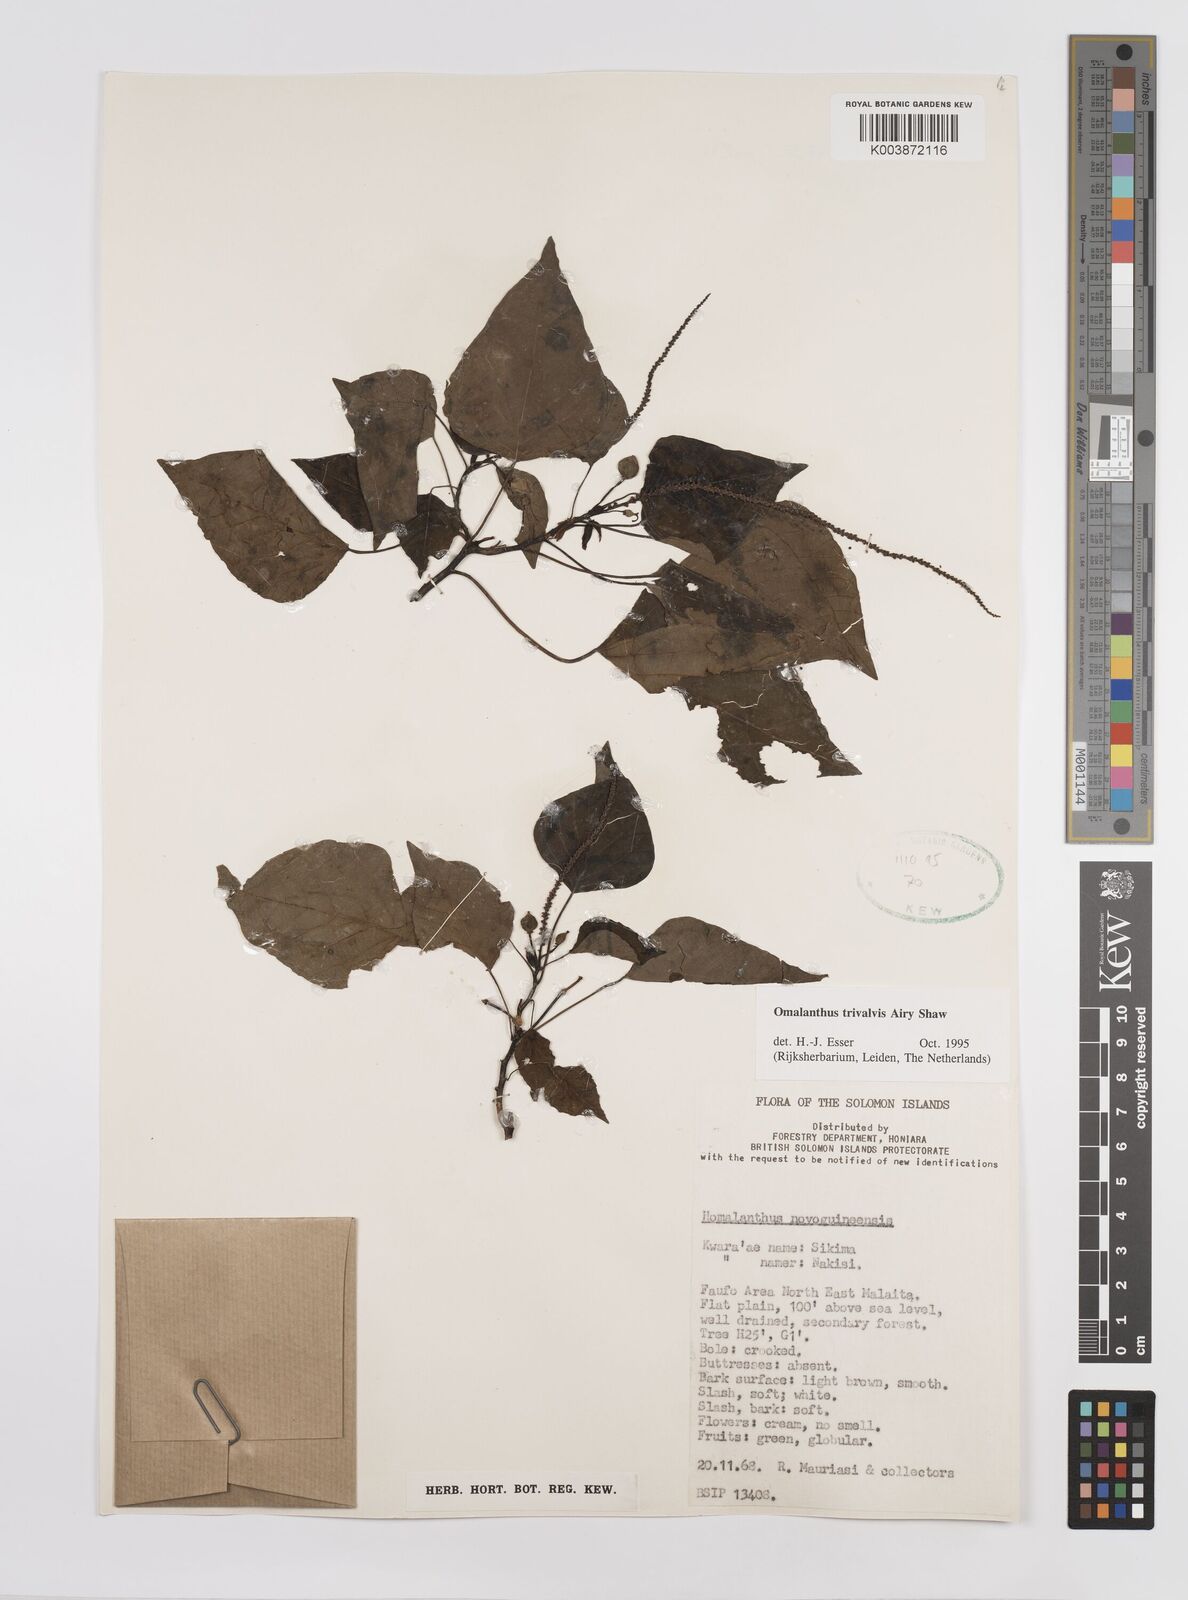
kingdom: Plantae
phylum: Tracheophyta
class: Magnoliopsida
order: Malpighiales
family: Euphorbiaceae
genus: Homalanthus
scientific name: Homalanthus trivalvis
